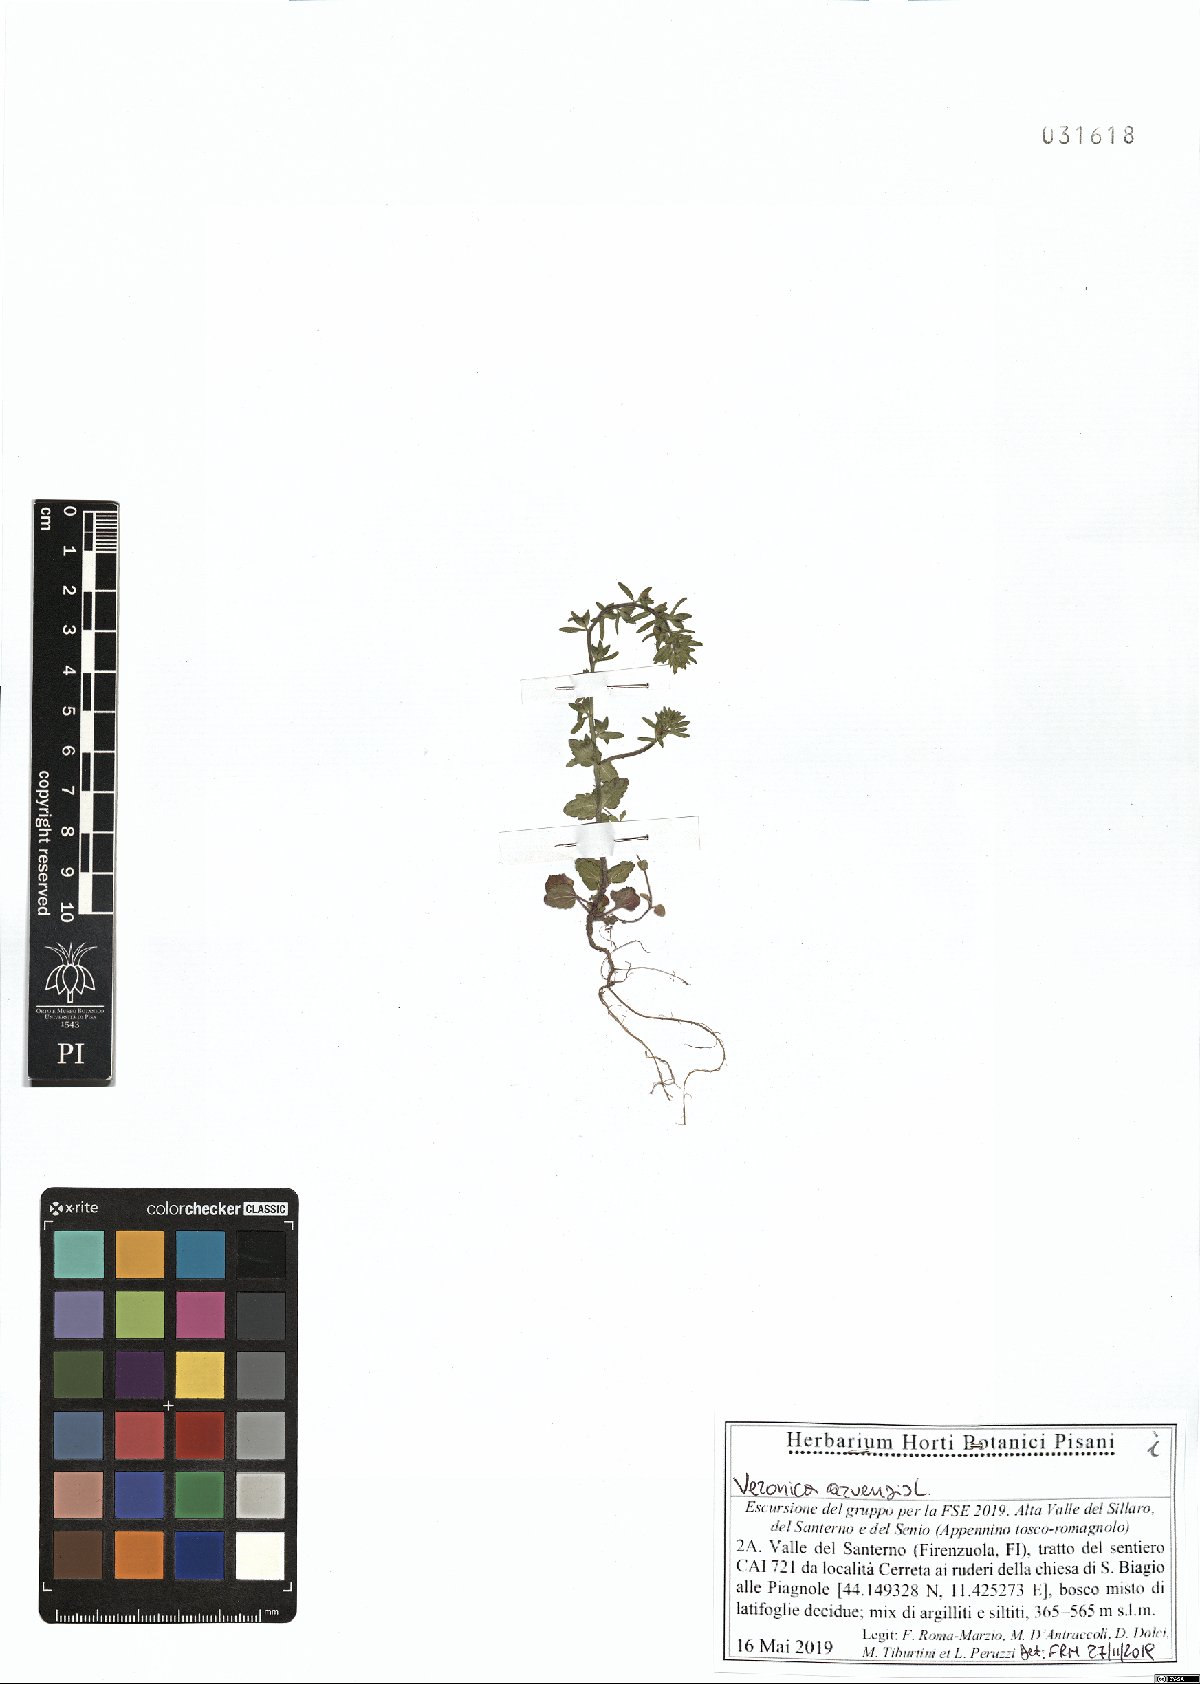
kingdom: Plantae
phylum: Tracheophyta
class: Magnoliopsida
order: Lamiales
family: Plantaginaceae
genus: Veronica
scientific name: Veronica arvensis
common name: Corn speedwell
